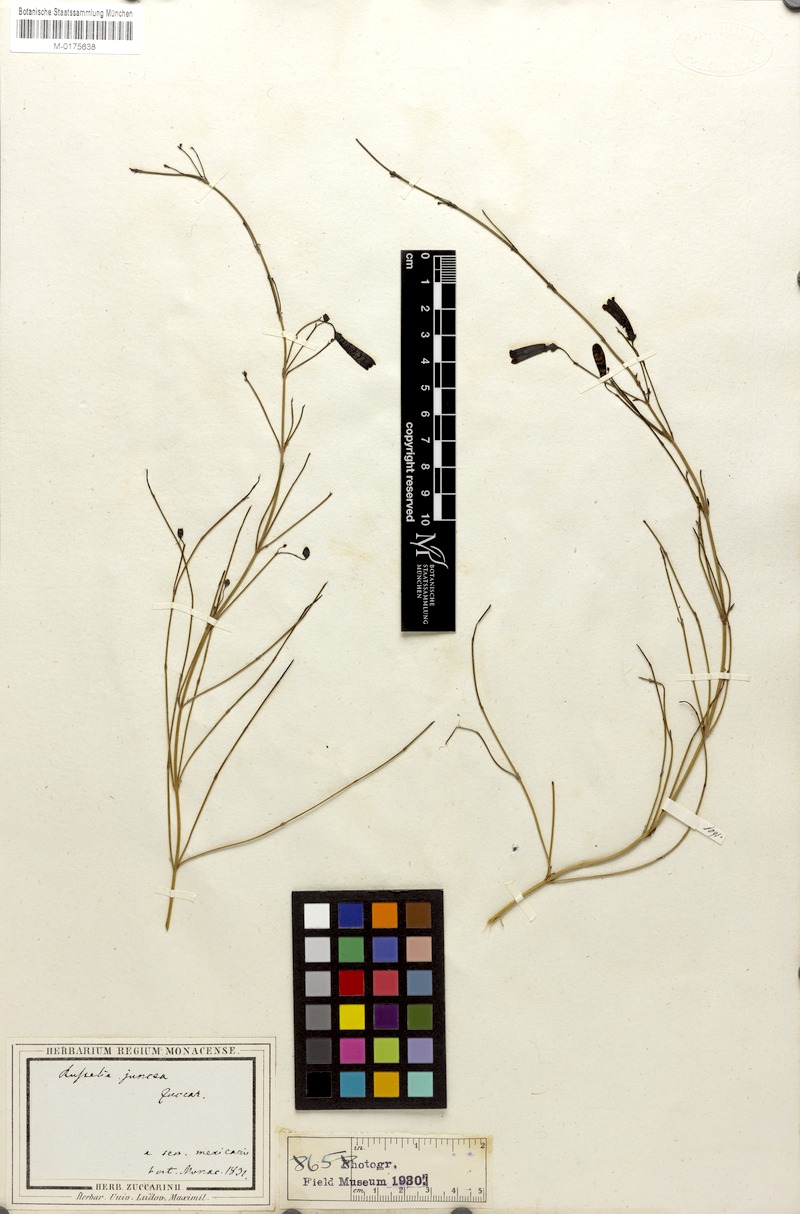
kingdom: Plantae
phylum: Tracheophyta
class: Magnoliopsida
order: Lamiales
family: Plantaginaceae
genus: Russelia
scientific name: Russelia equisetiformis
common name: Fountainbush
